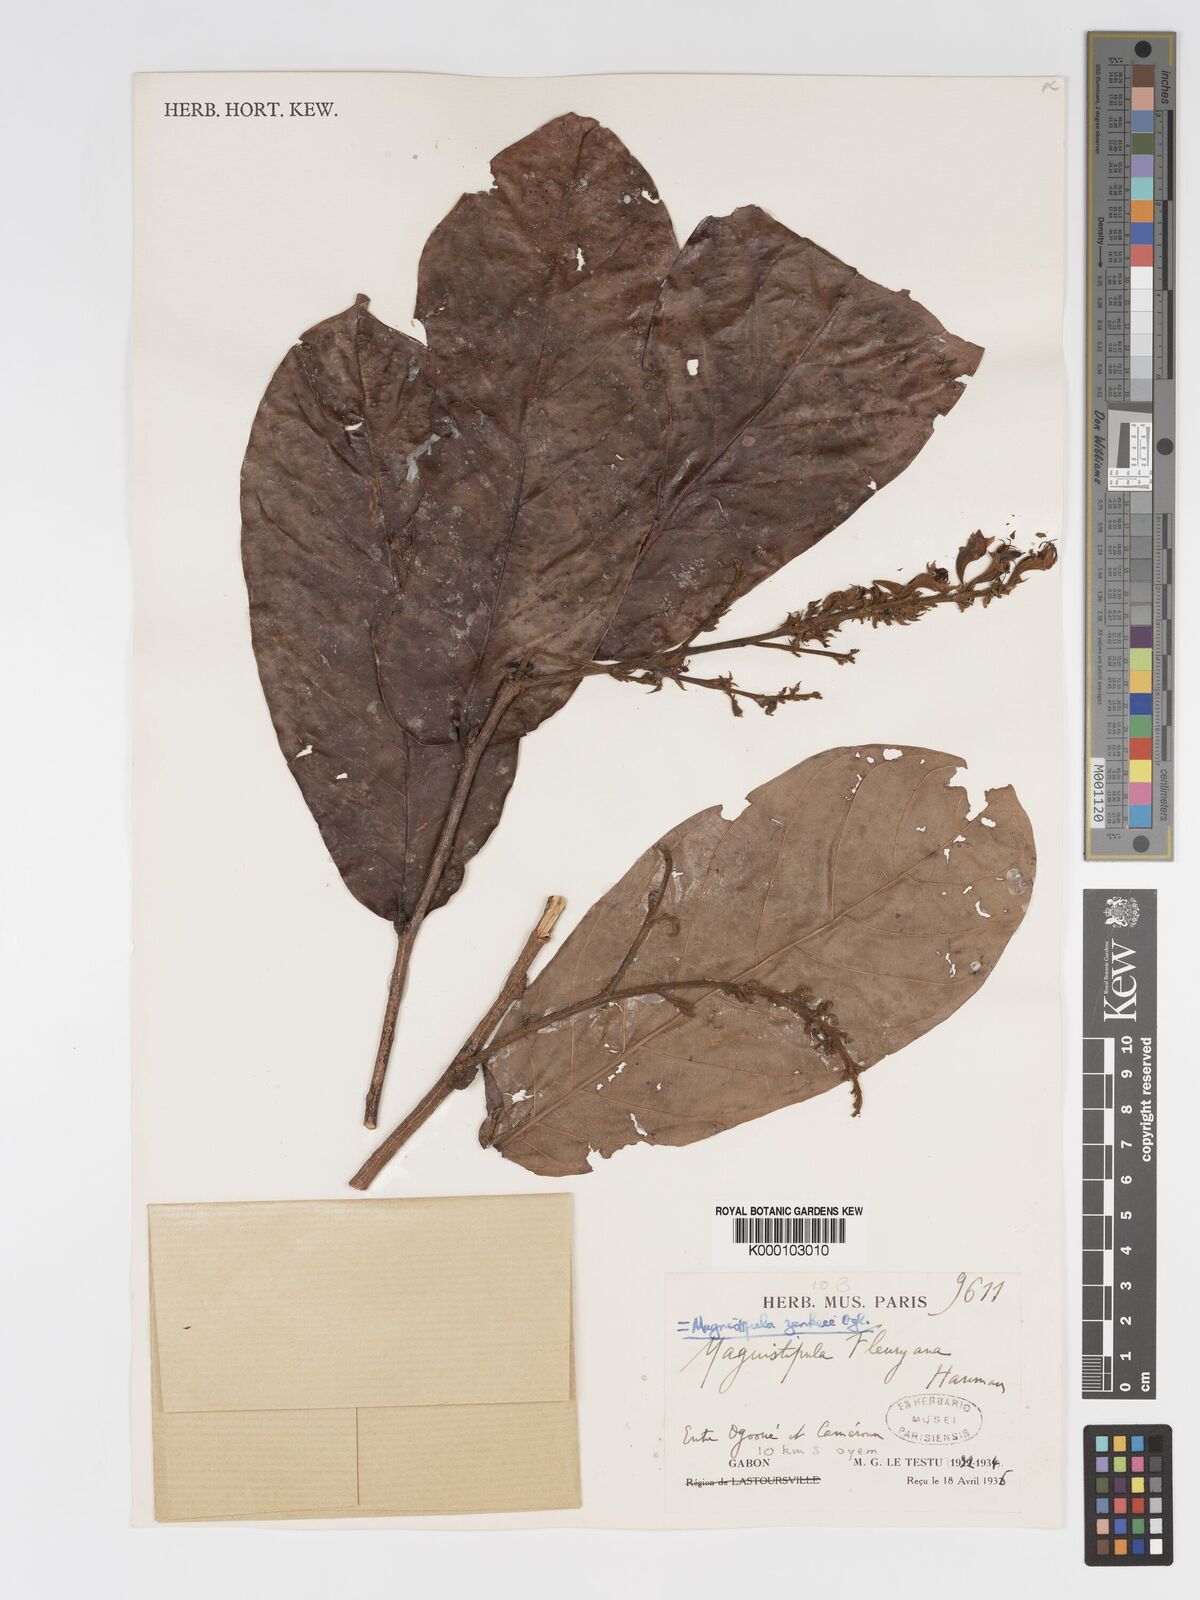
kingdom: Plantae
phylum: Tracheophyta
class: Magnoliopsida
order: Malpighiales
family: Chrysobalanaceae
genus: Magnistipula
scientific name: Magnistipula zenkeri
